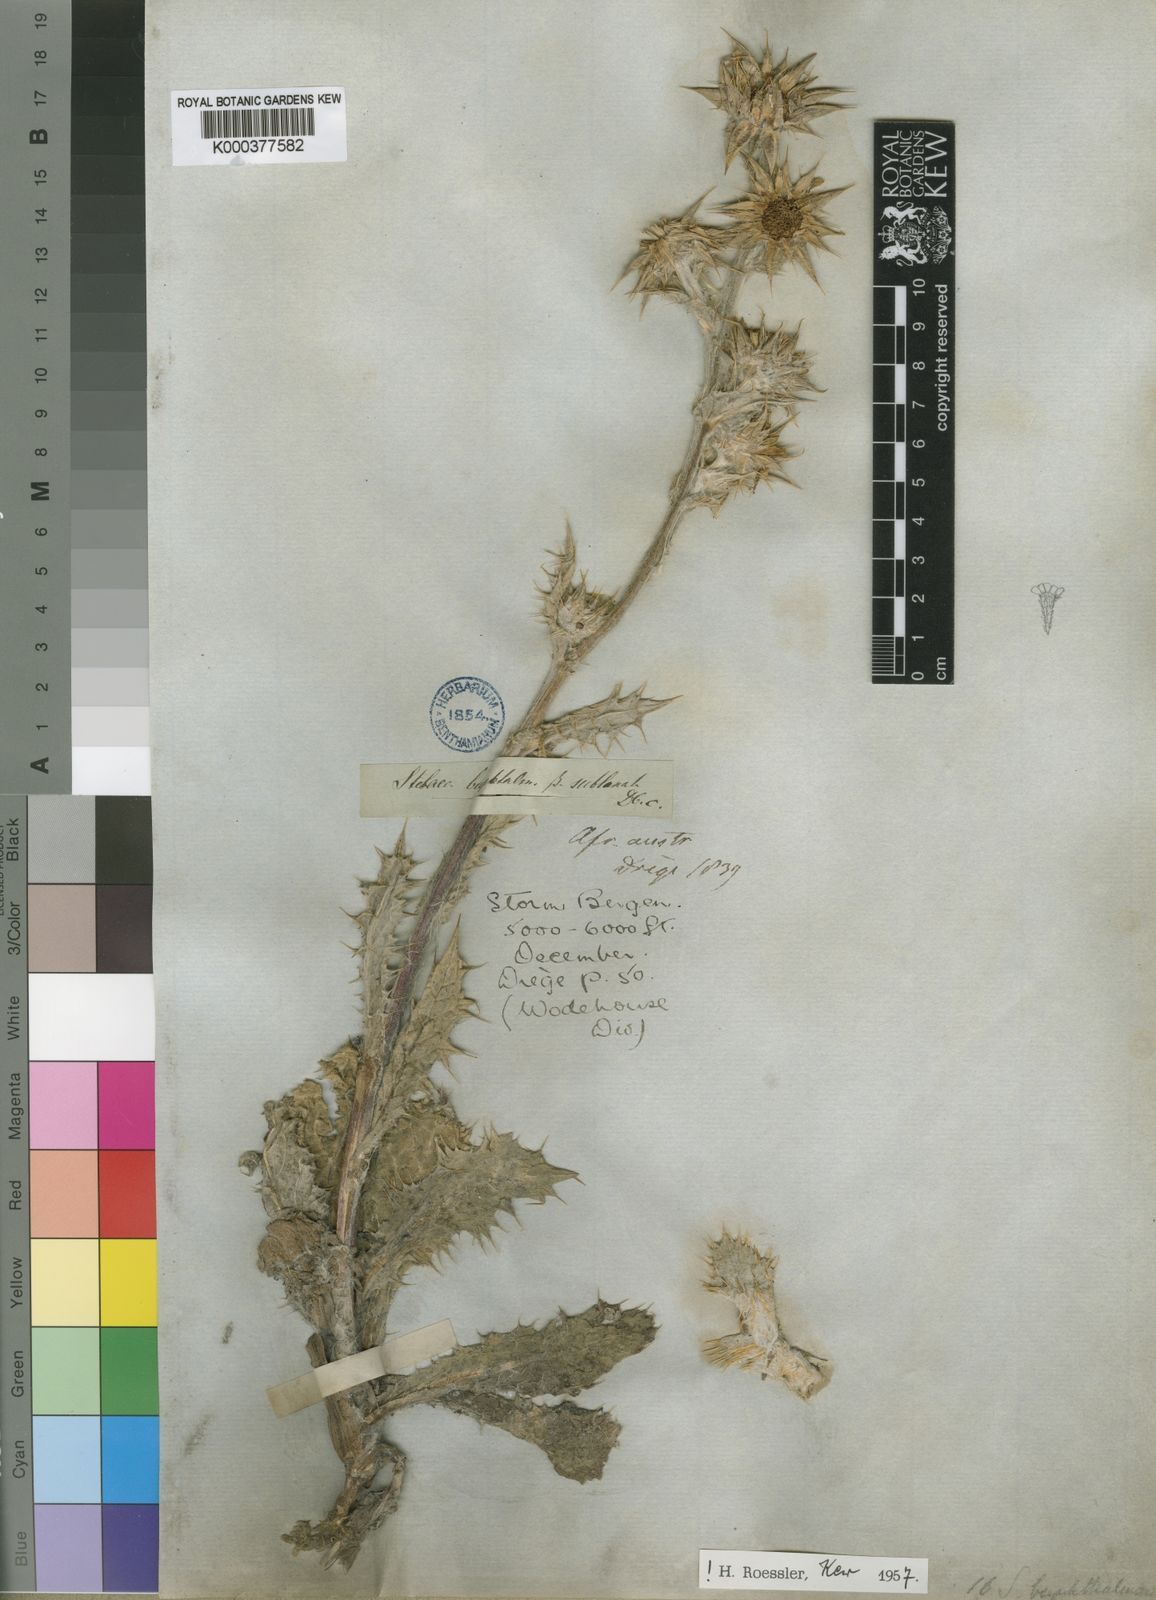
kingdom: Plantae
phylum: Tracheophyta
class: Magnoliopsida
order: Asterales
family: Asteraceae
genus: Berkheya
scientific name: Berkheya buphthalmoides
